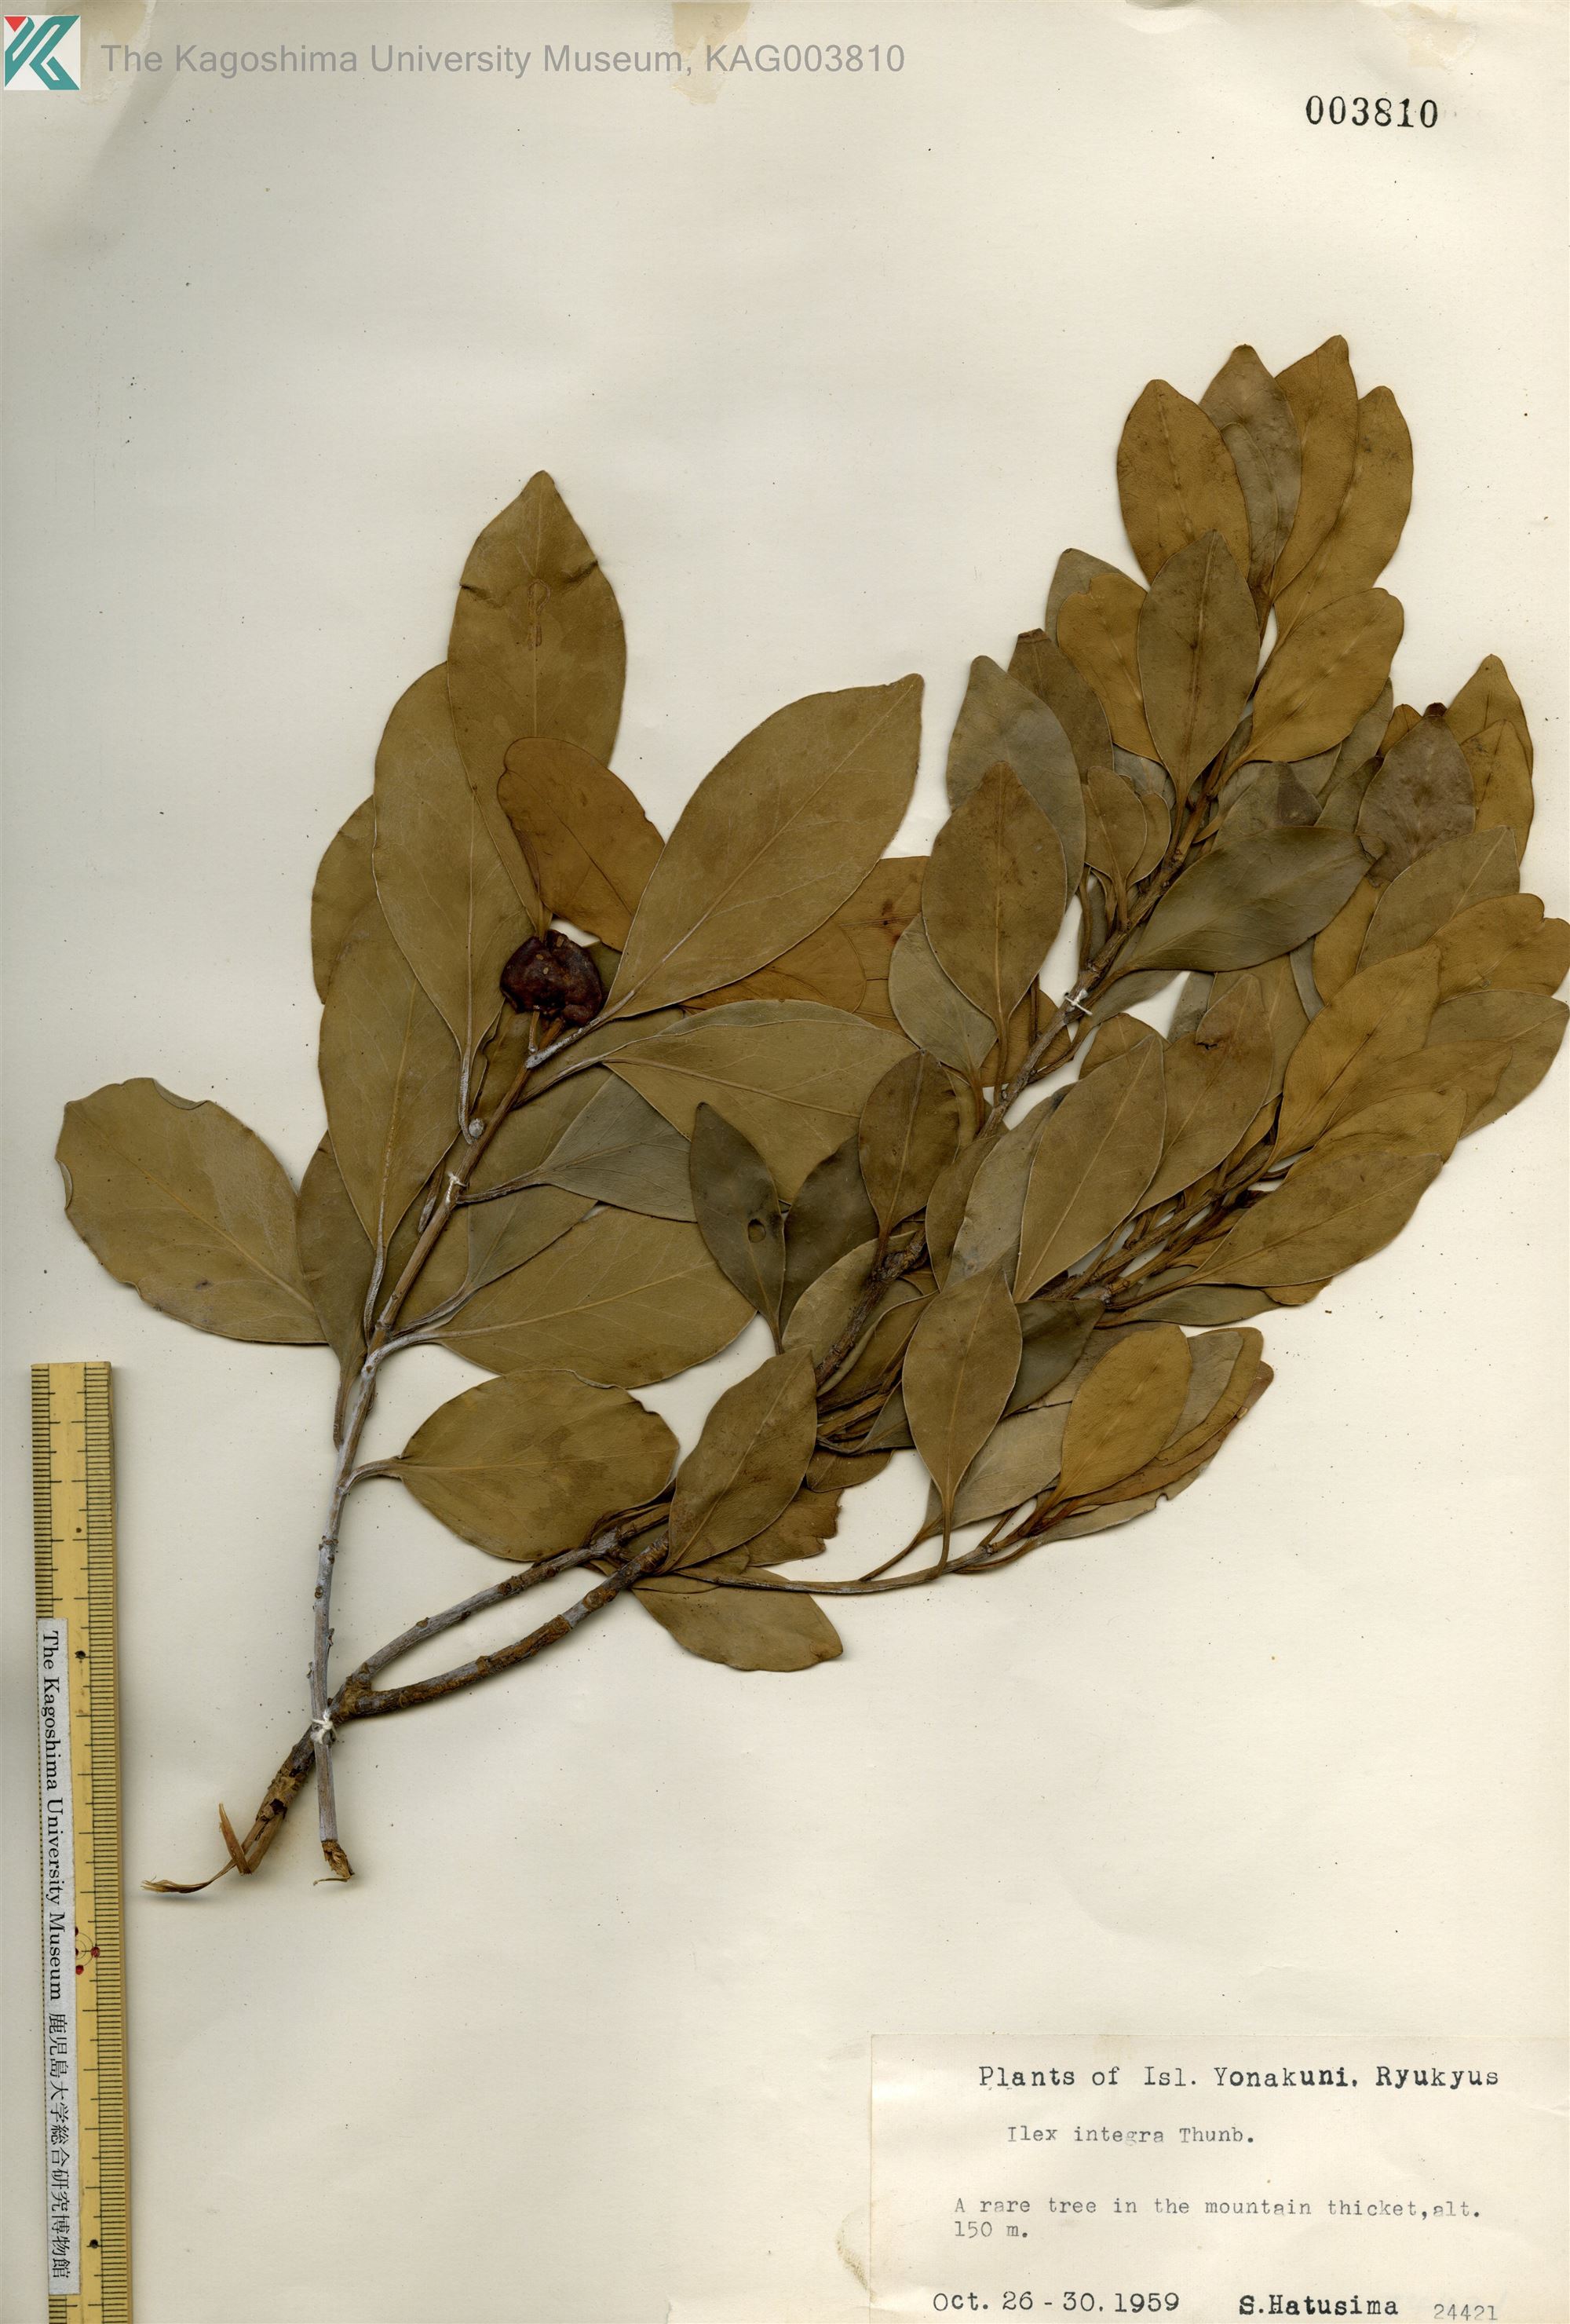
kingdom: Plantae
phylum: Tracheophyta
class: Magnoliopsida
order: Aquifoliales
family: Aquifoliaceae
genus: Ilex
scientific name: Ilex integra
